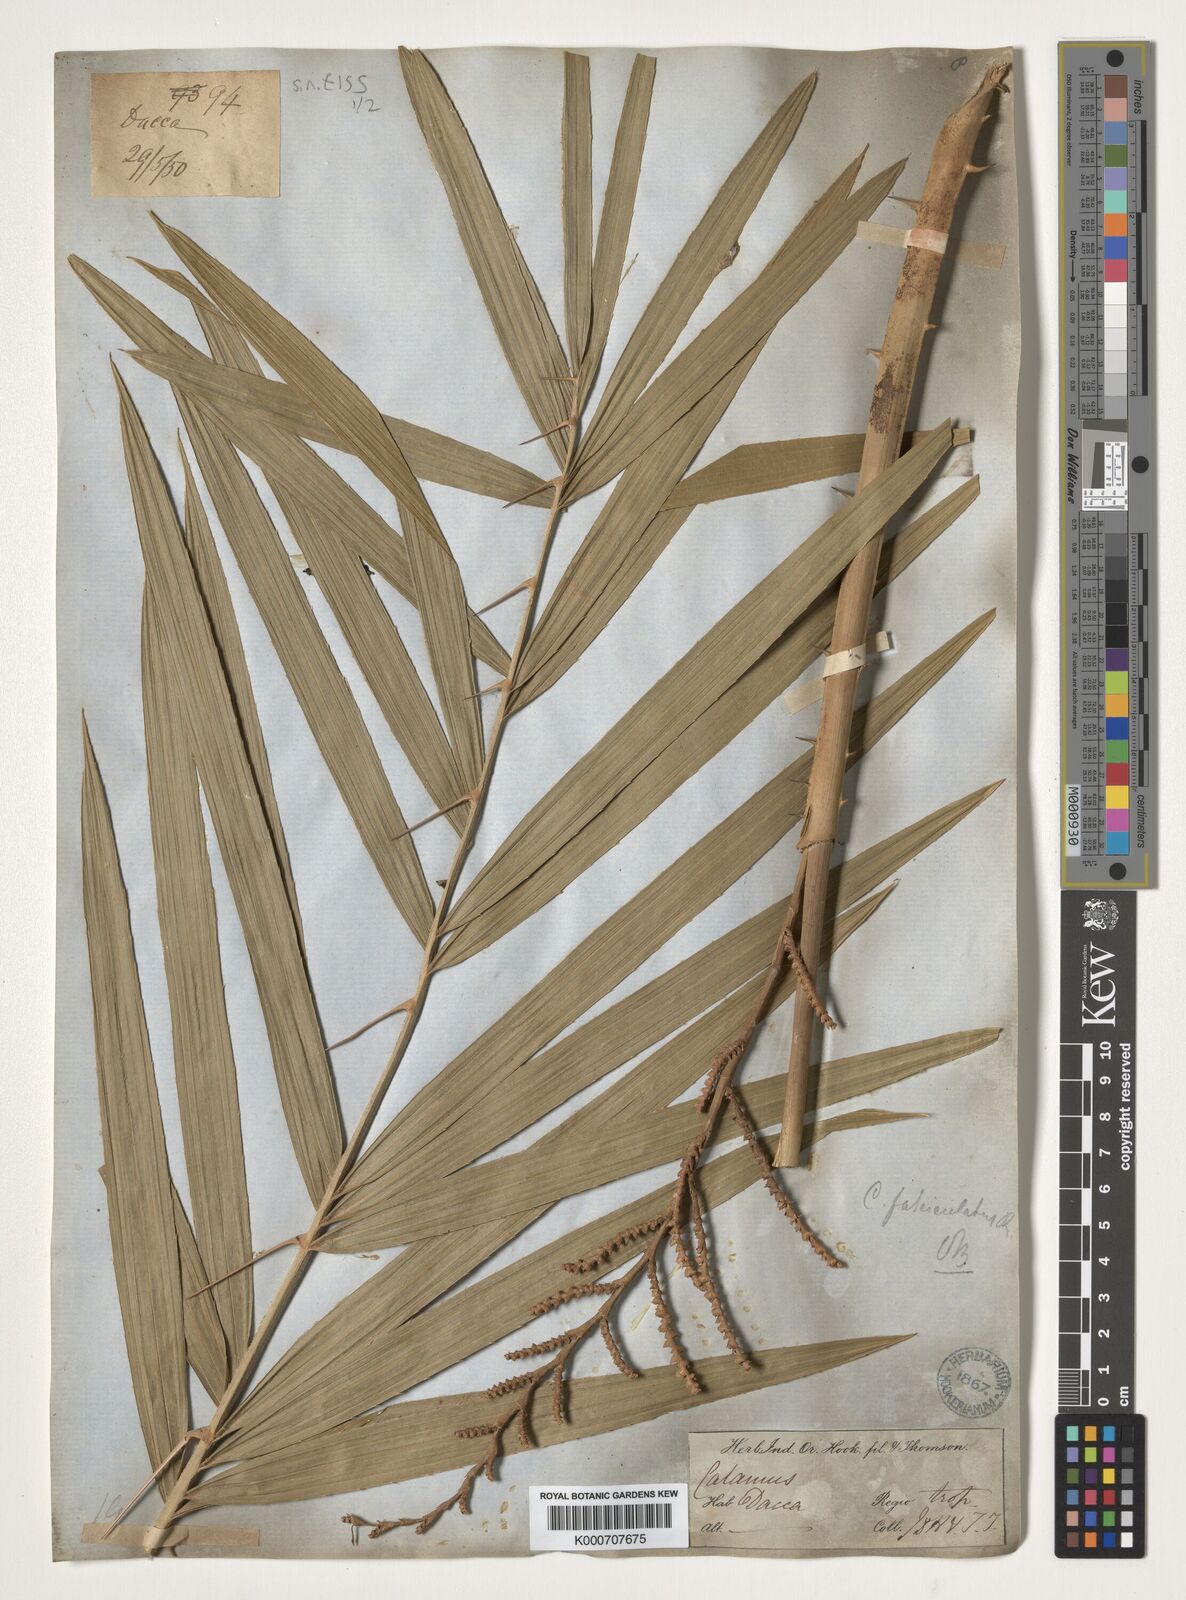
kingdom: Plantae
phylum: Tracheophyta
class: Liliopsida
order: Arecales
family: Arecaceae
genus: Calamus
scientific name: Calamus viminalis
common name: Osier-like rattan palm
